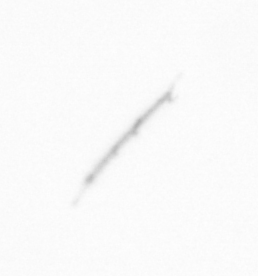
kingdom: Chromista
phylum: Ochrophyta
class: Bacillariophyceae
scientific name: Bacillariophyceae
